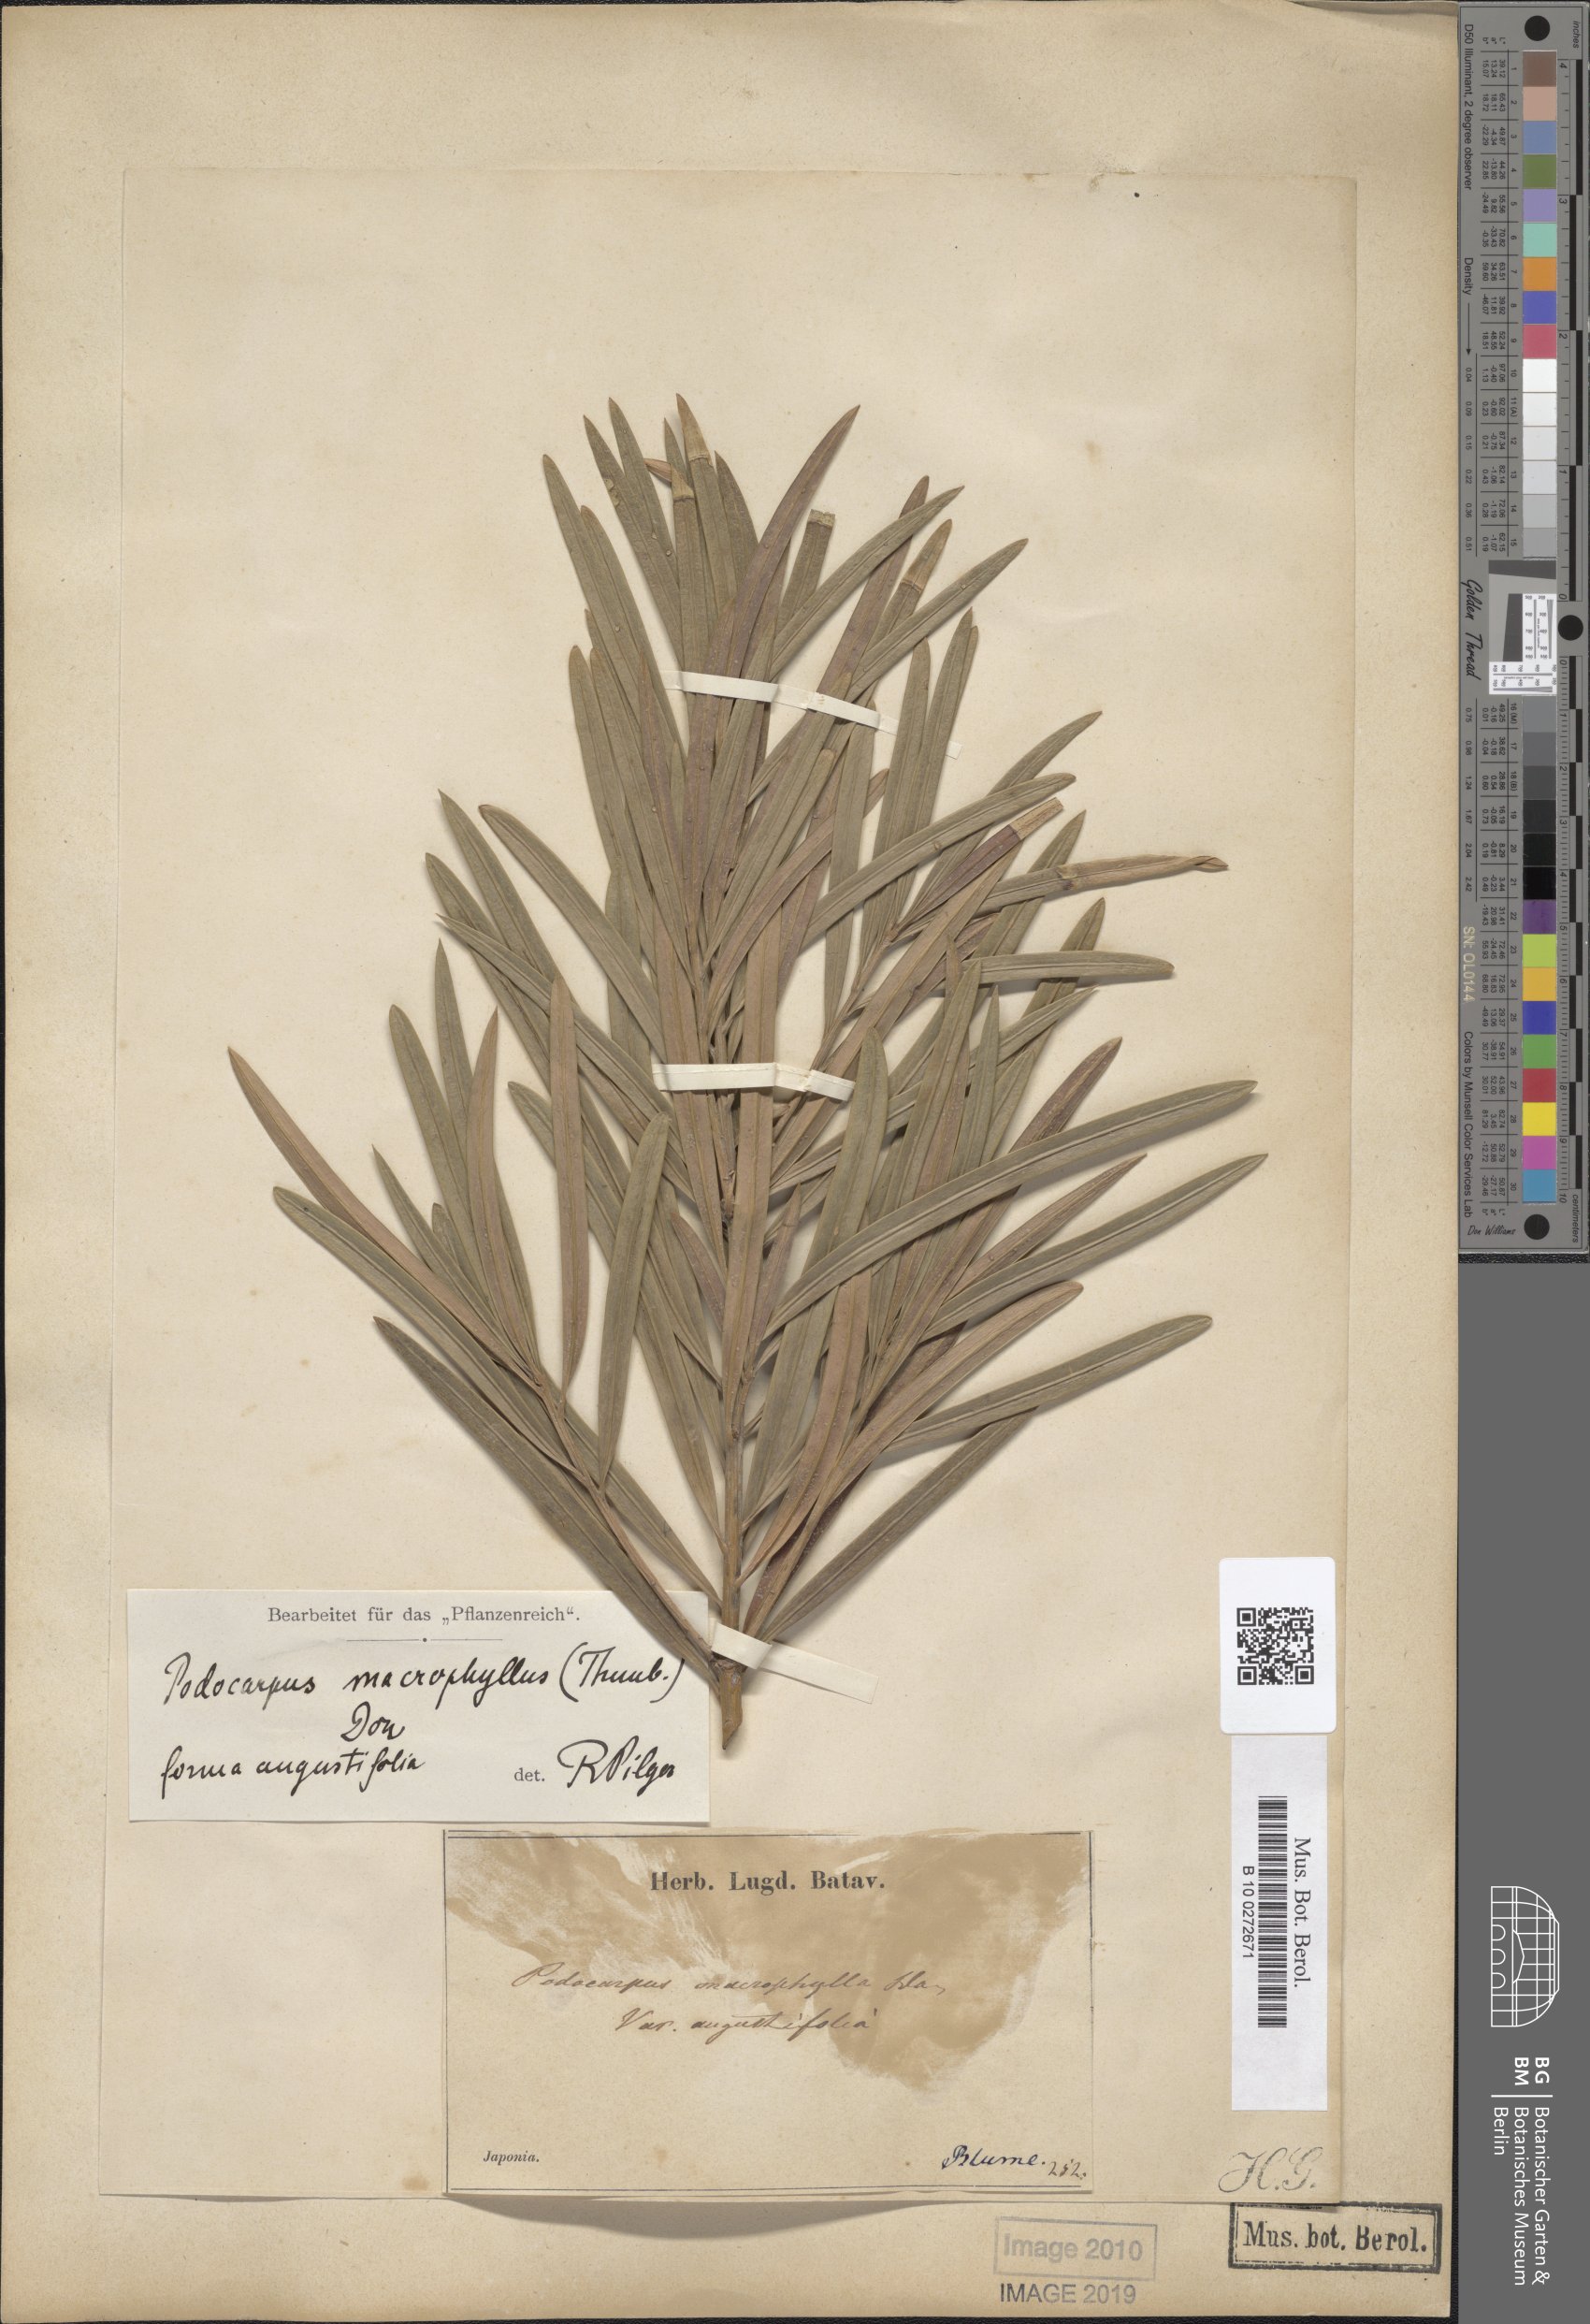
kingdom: Plantae
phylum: Tracheophyta
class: Pinopsida
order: Pinales
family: Podocarpaceae
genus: Podocarpus
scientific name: Podocarpus macrophyllus
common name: Japanese yew
